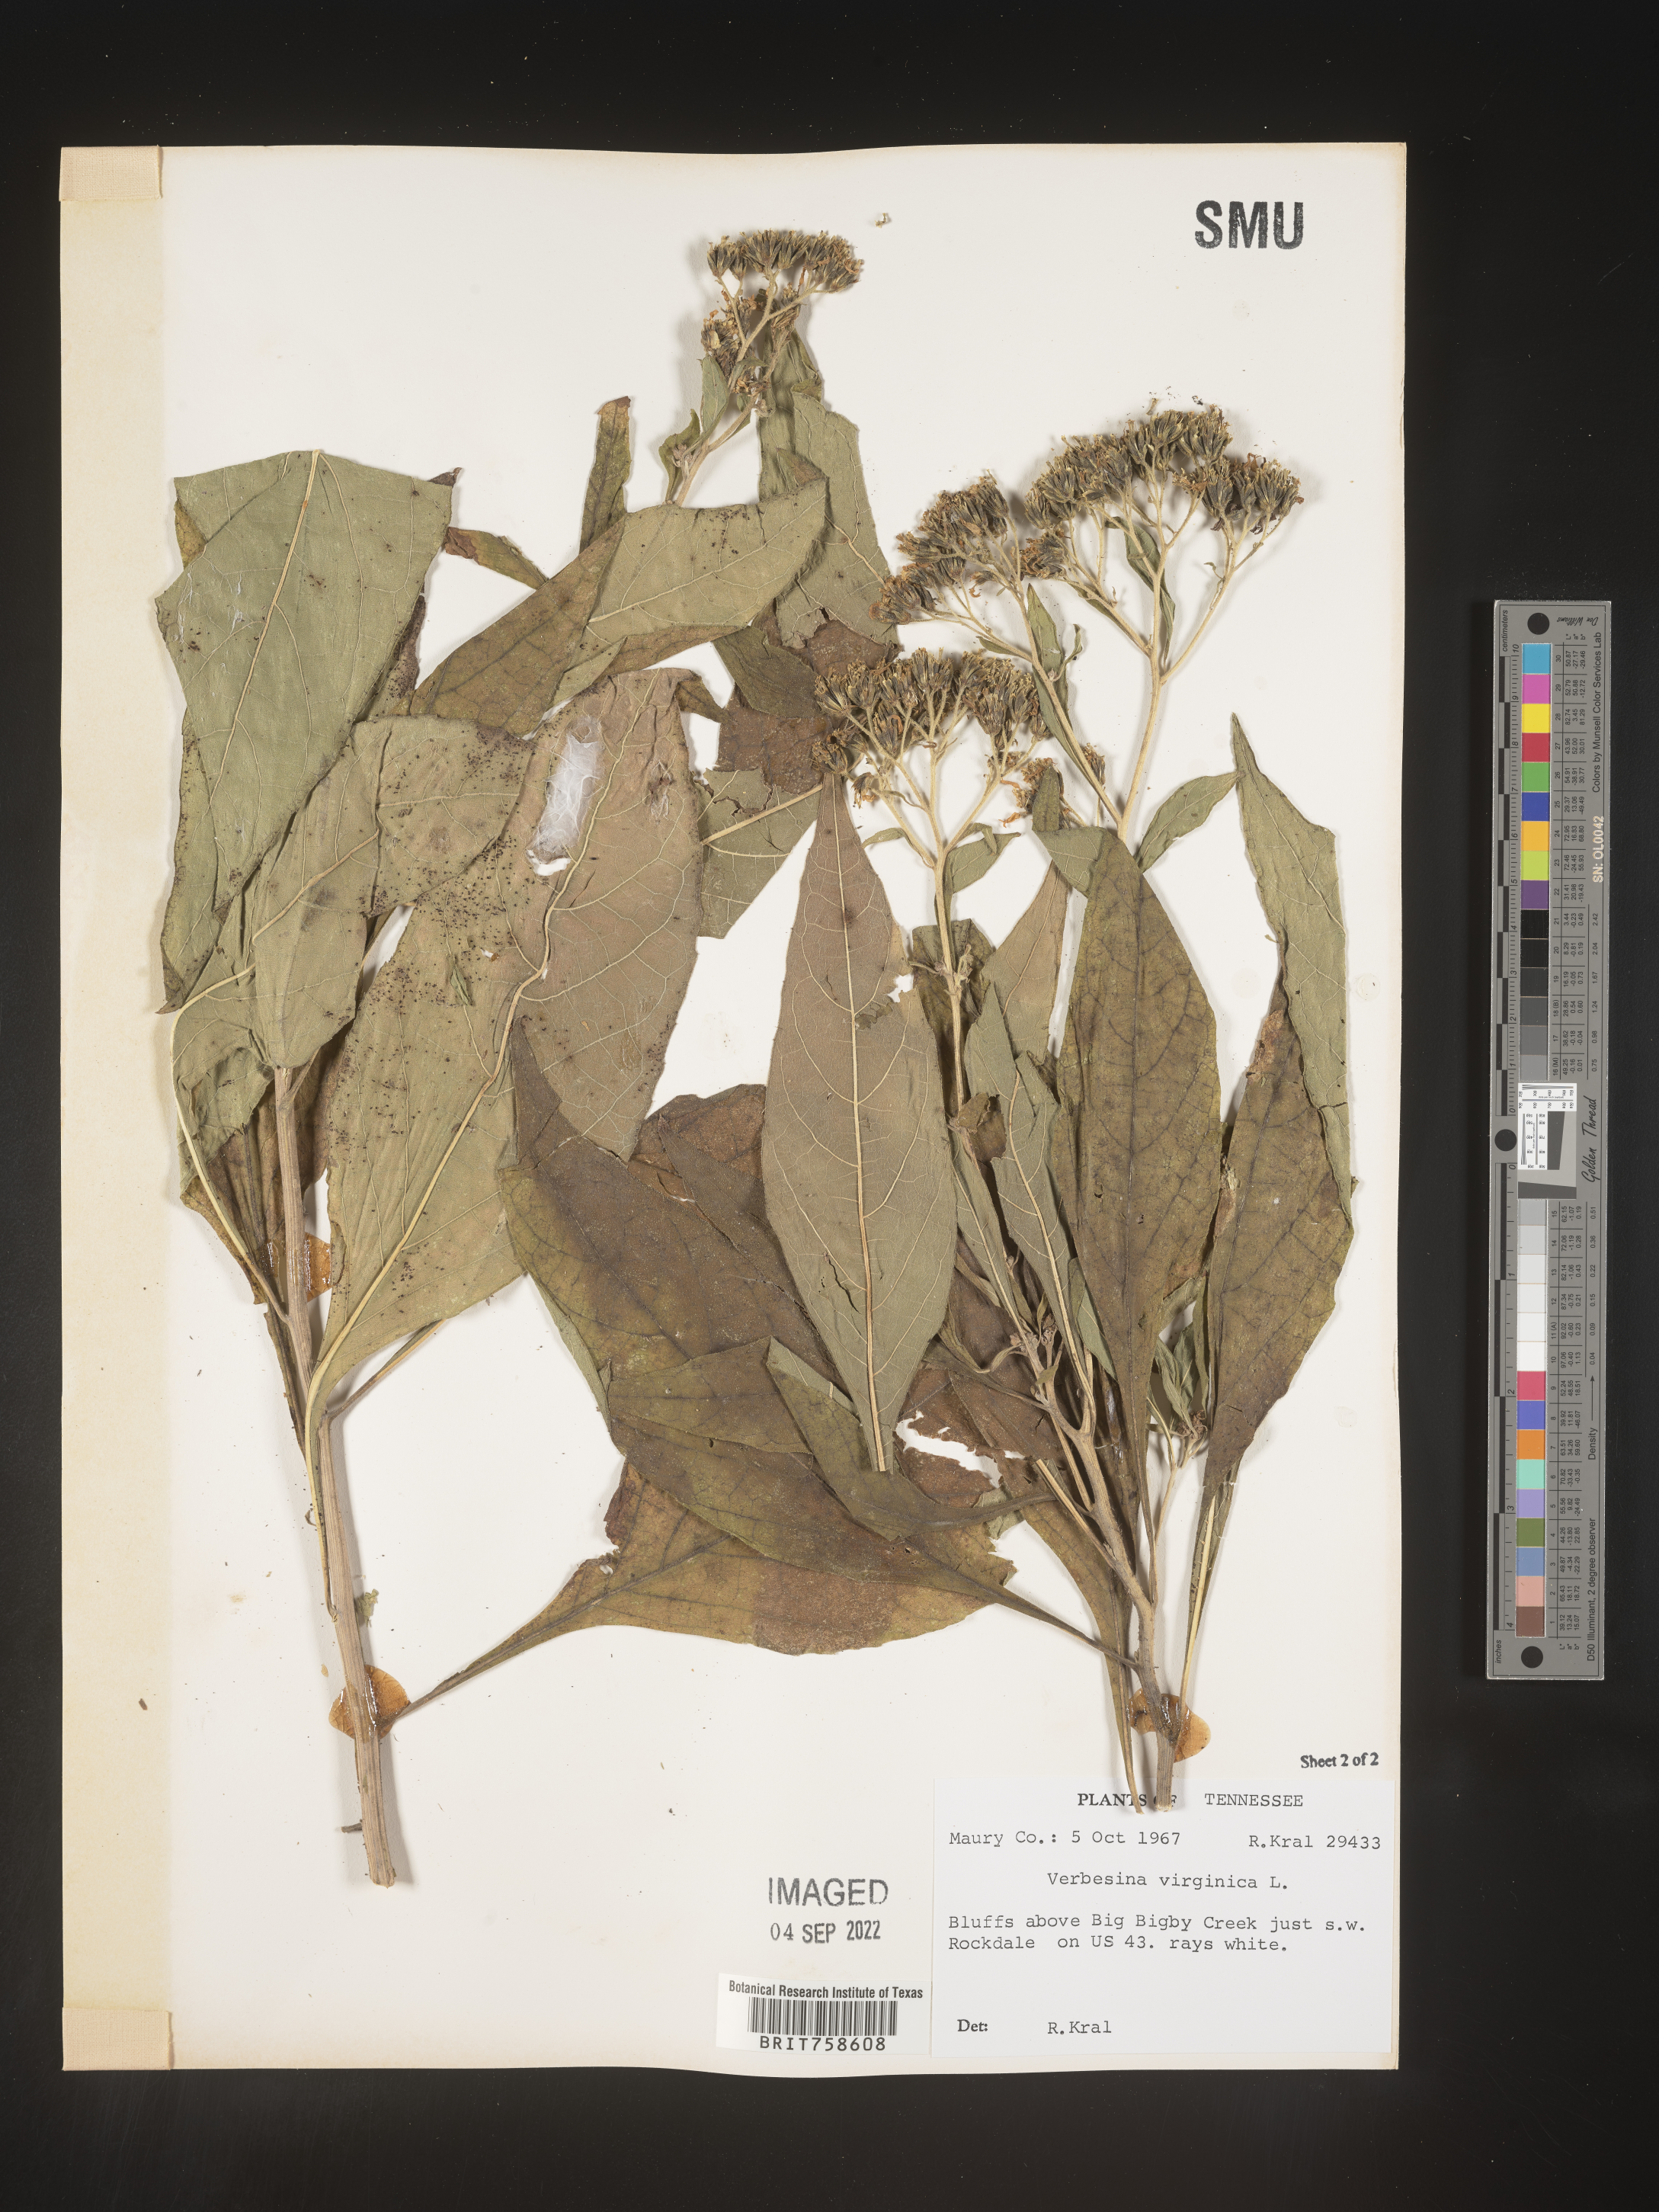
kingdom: Plantae
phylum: Tracheophyta
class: Magnoliopsida
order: Asterales
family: Asteraceae
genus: Verbesina
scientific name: Verbesina virginica
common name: Frostweed
